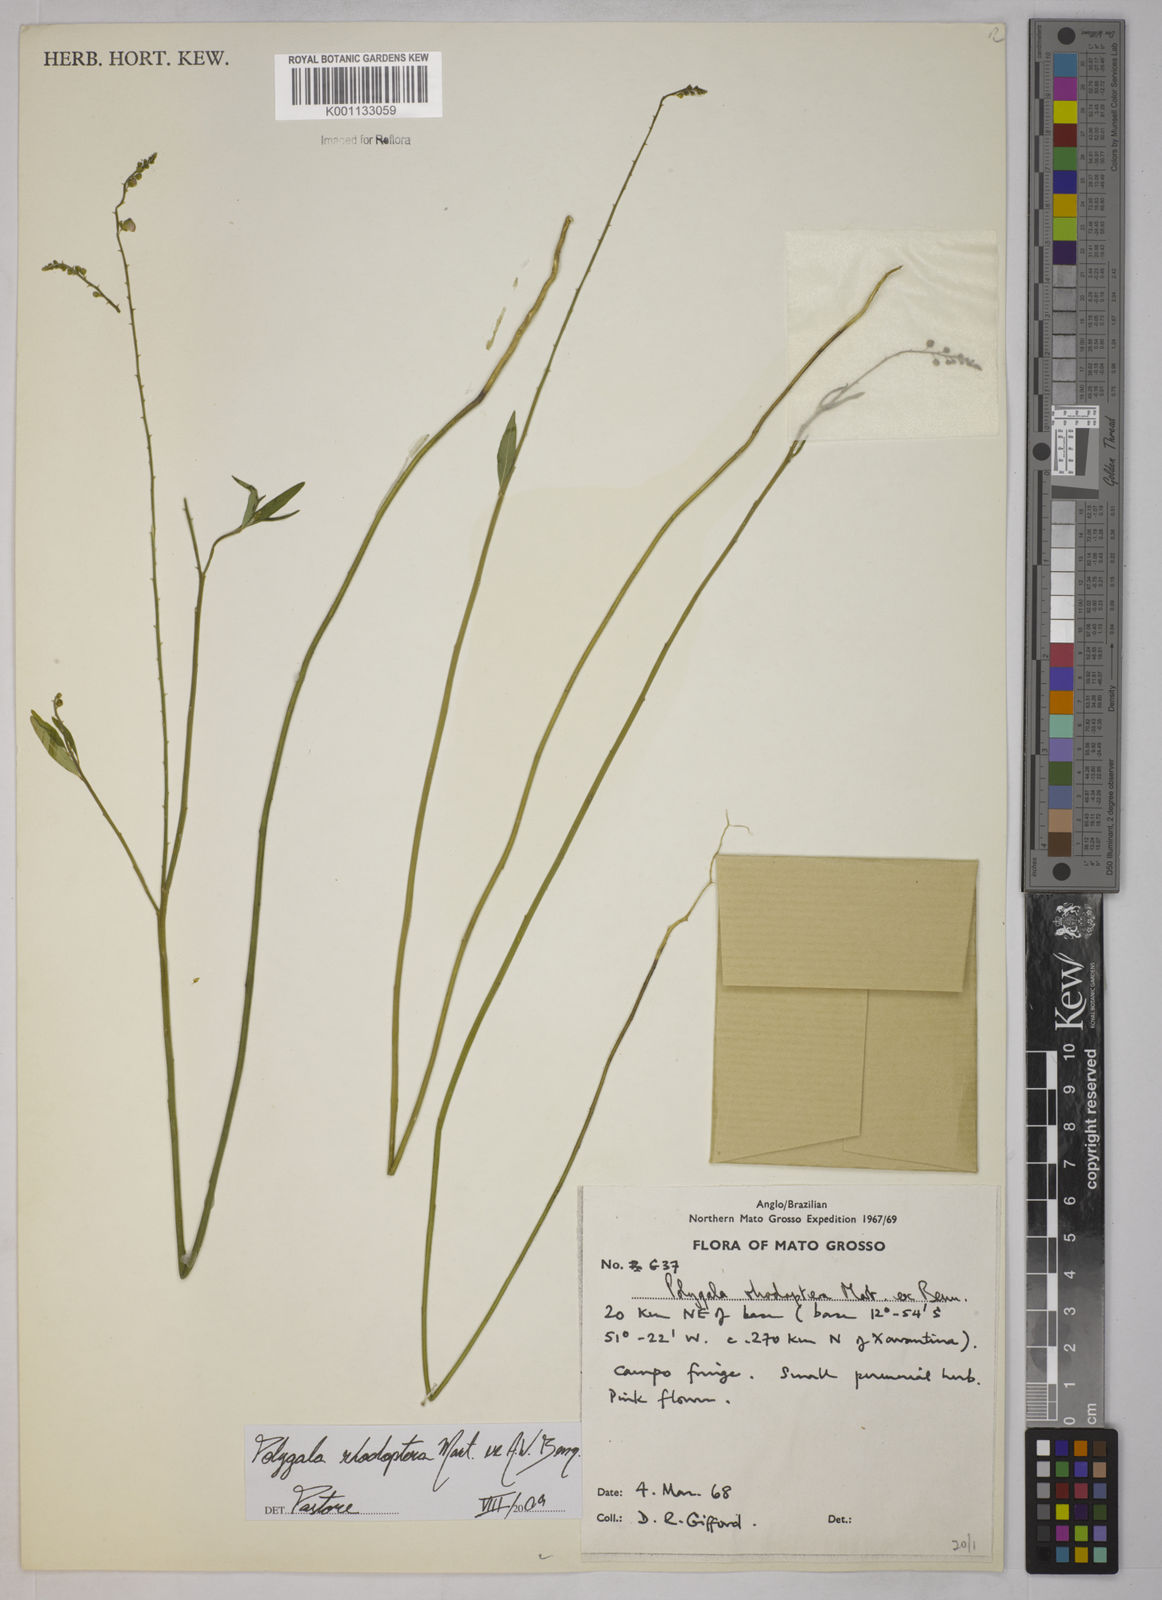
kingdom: Plantae
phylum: Tracheophyta
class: Magnoliopsida
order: Fabales
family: Polygalaceae
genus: Asemeia
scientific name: Asemeia rhodoptera
